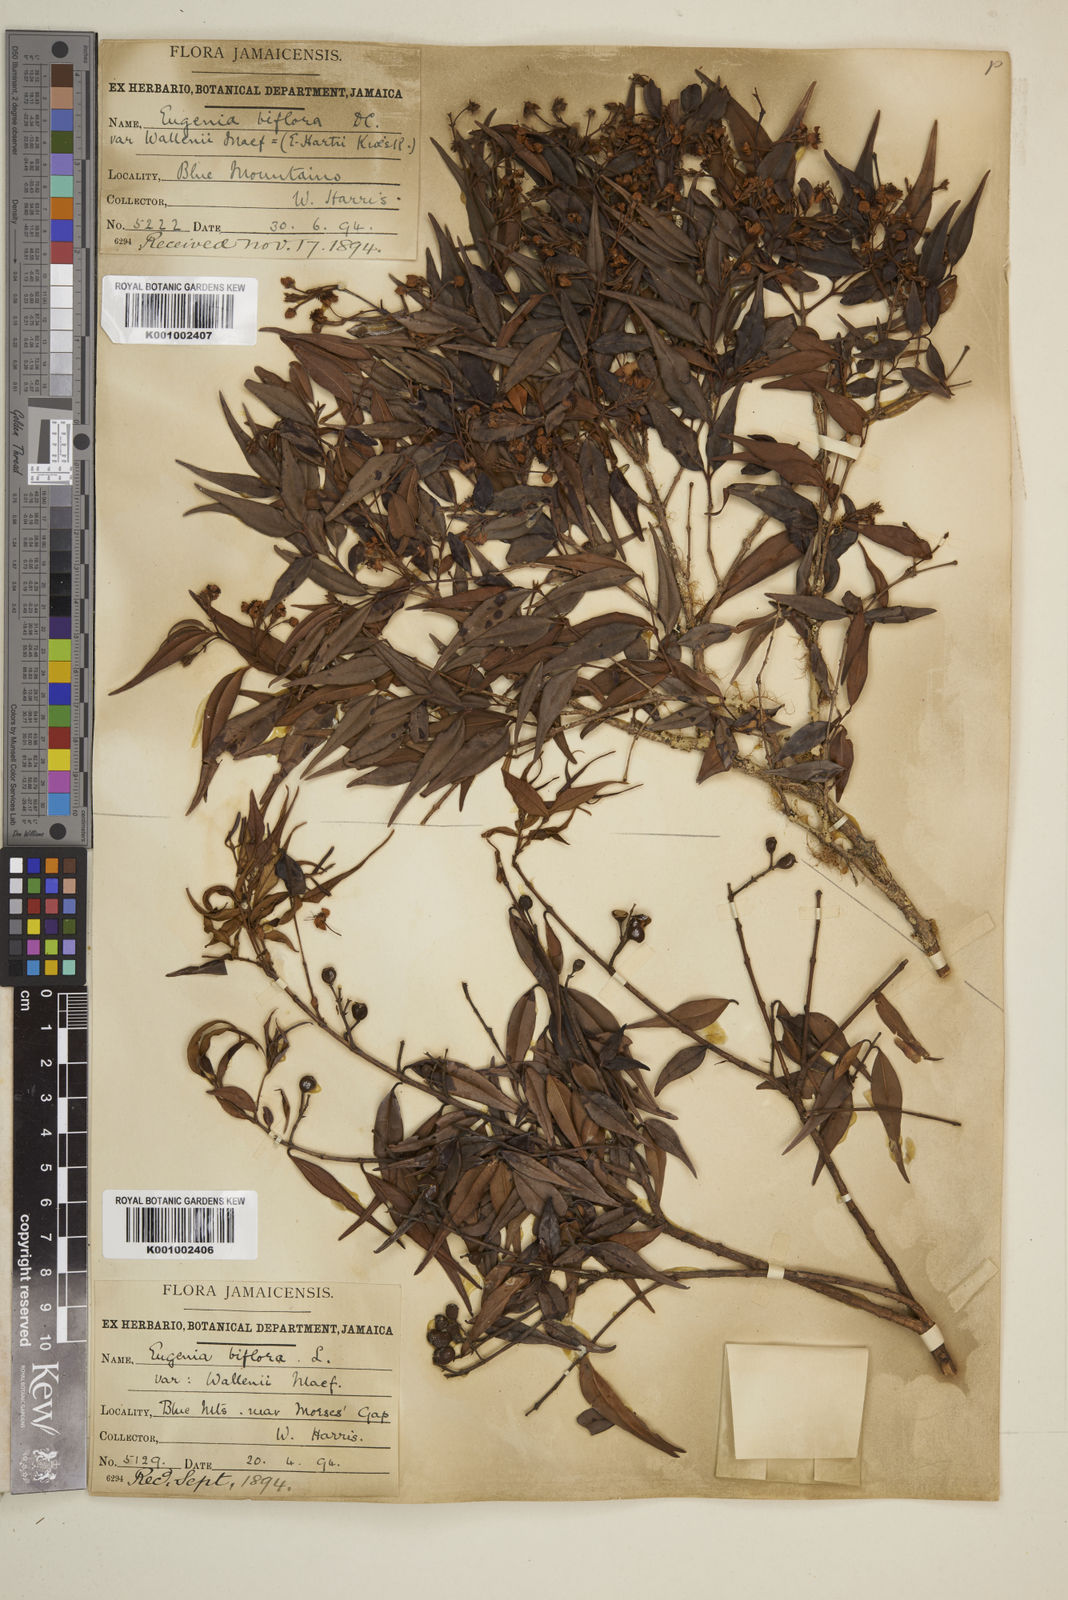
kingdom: Plantae
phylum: Tracheophyta
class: Magnoliopsida
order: Myrtales
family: Myrtaceae
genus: Eugenia
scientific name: Eugenia biflora
